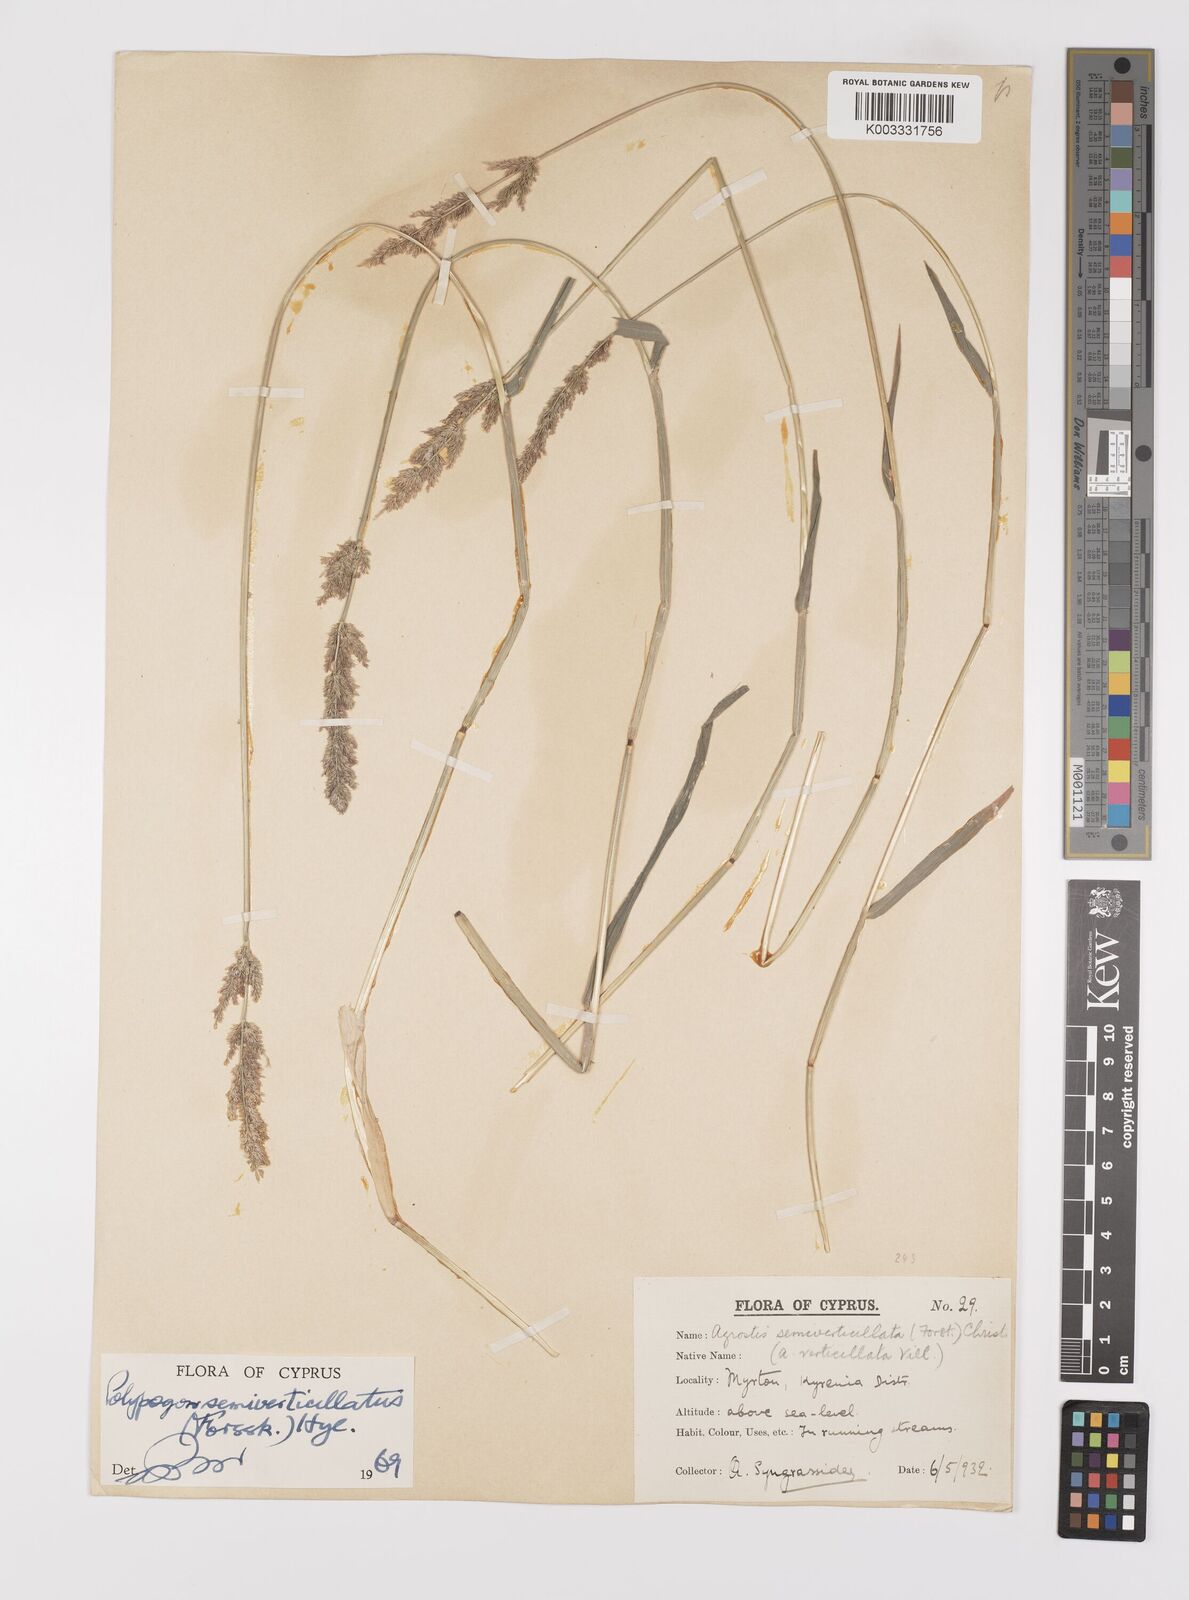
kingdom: Plantae
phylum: Tracheophyta
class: Liliopsida
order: Poales
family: Poaceae
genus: Polypogon
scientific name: Polypogon viridis
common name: Water bent
